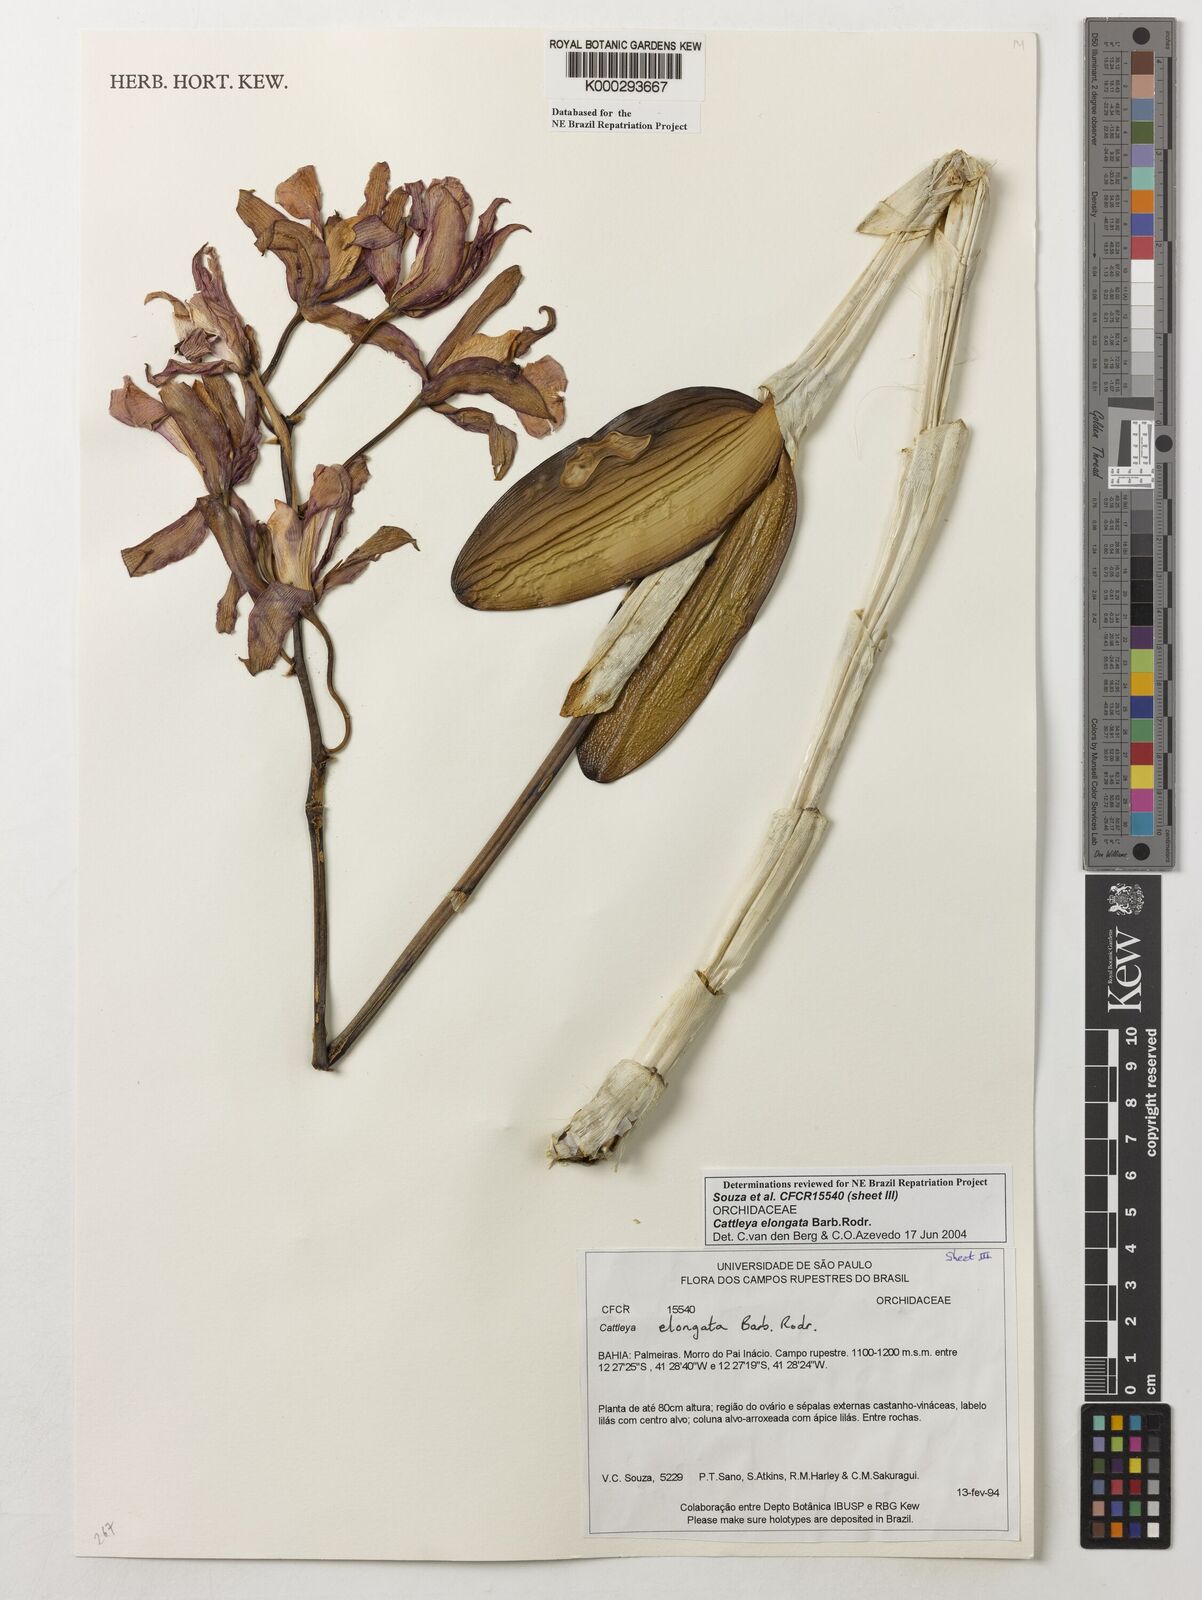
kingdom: Plantae
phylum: Tracheophyta
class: Liliopsida
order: Asparagales
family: Orchidaceae
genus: Cattleya
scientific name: Cattleya elongata
